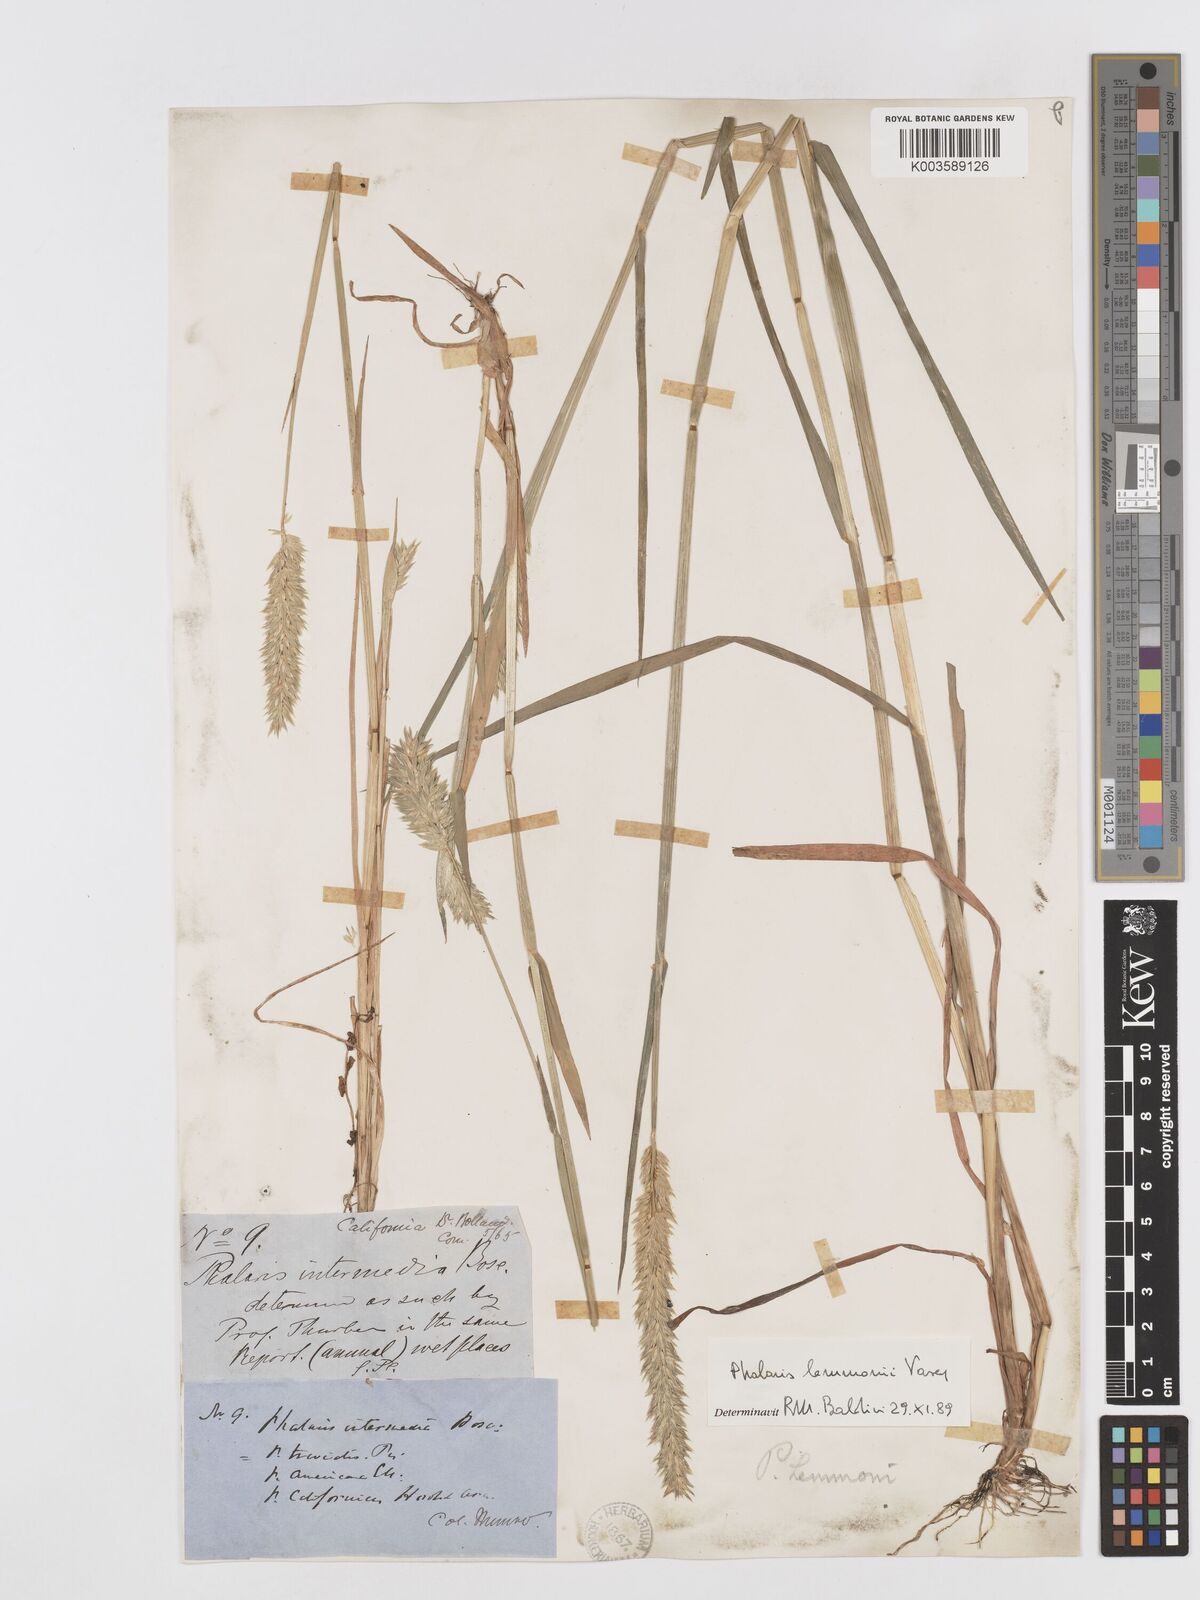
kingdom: Plantae
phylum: Tracheophyta
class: Liliopsida
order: Poales
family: Poaceae
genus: Phalaris
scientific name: Phalaris lemmonii
